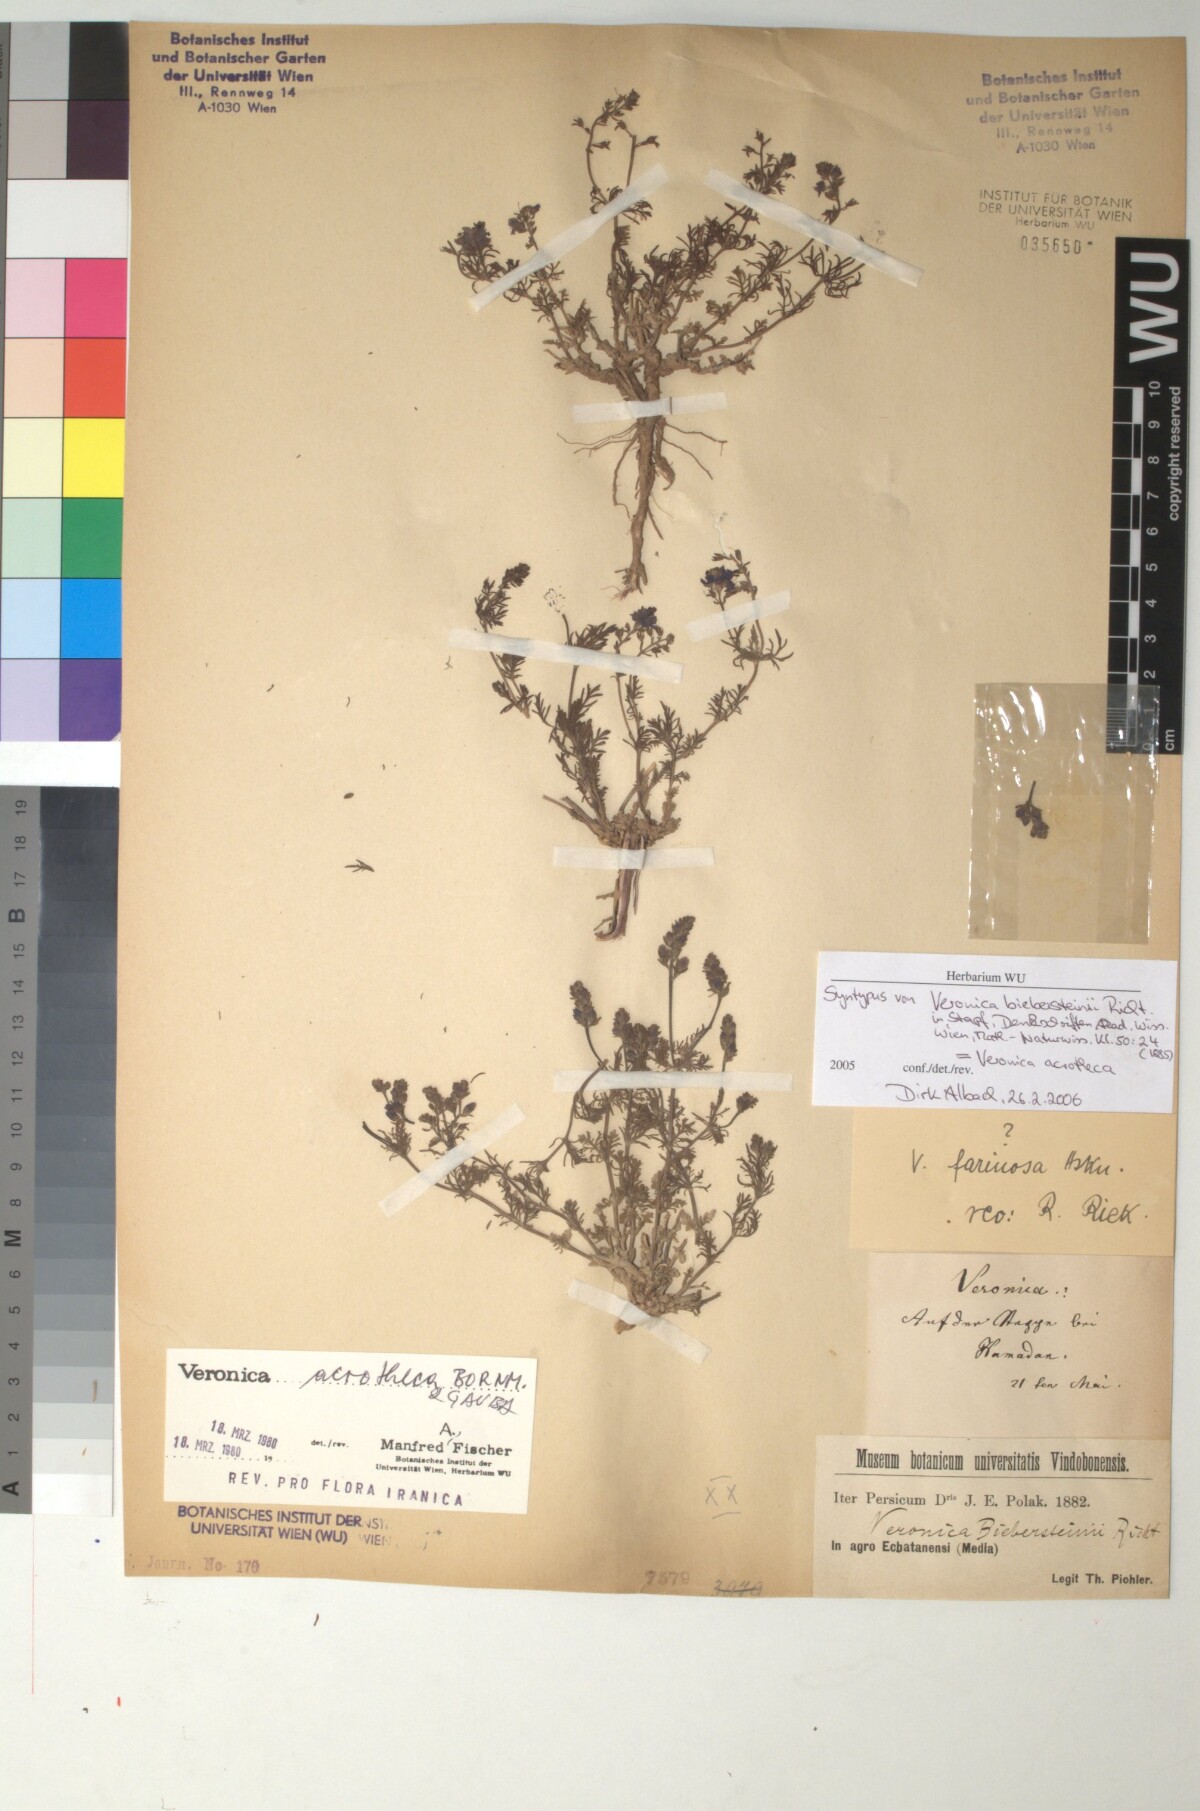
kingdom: Plantae
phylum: Tracheophyta
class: Magnoliopsida
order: Lamiales
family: Plantaginaceae
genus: Veronica
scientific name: Veronica multifida
